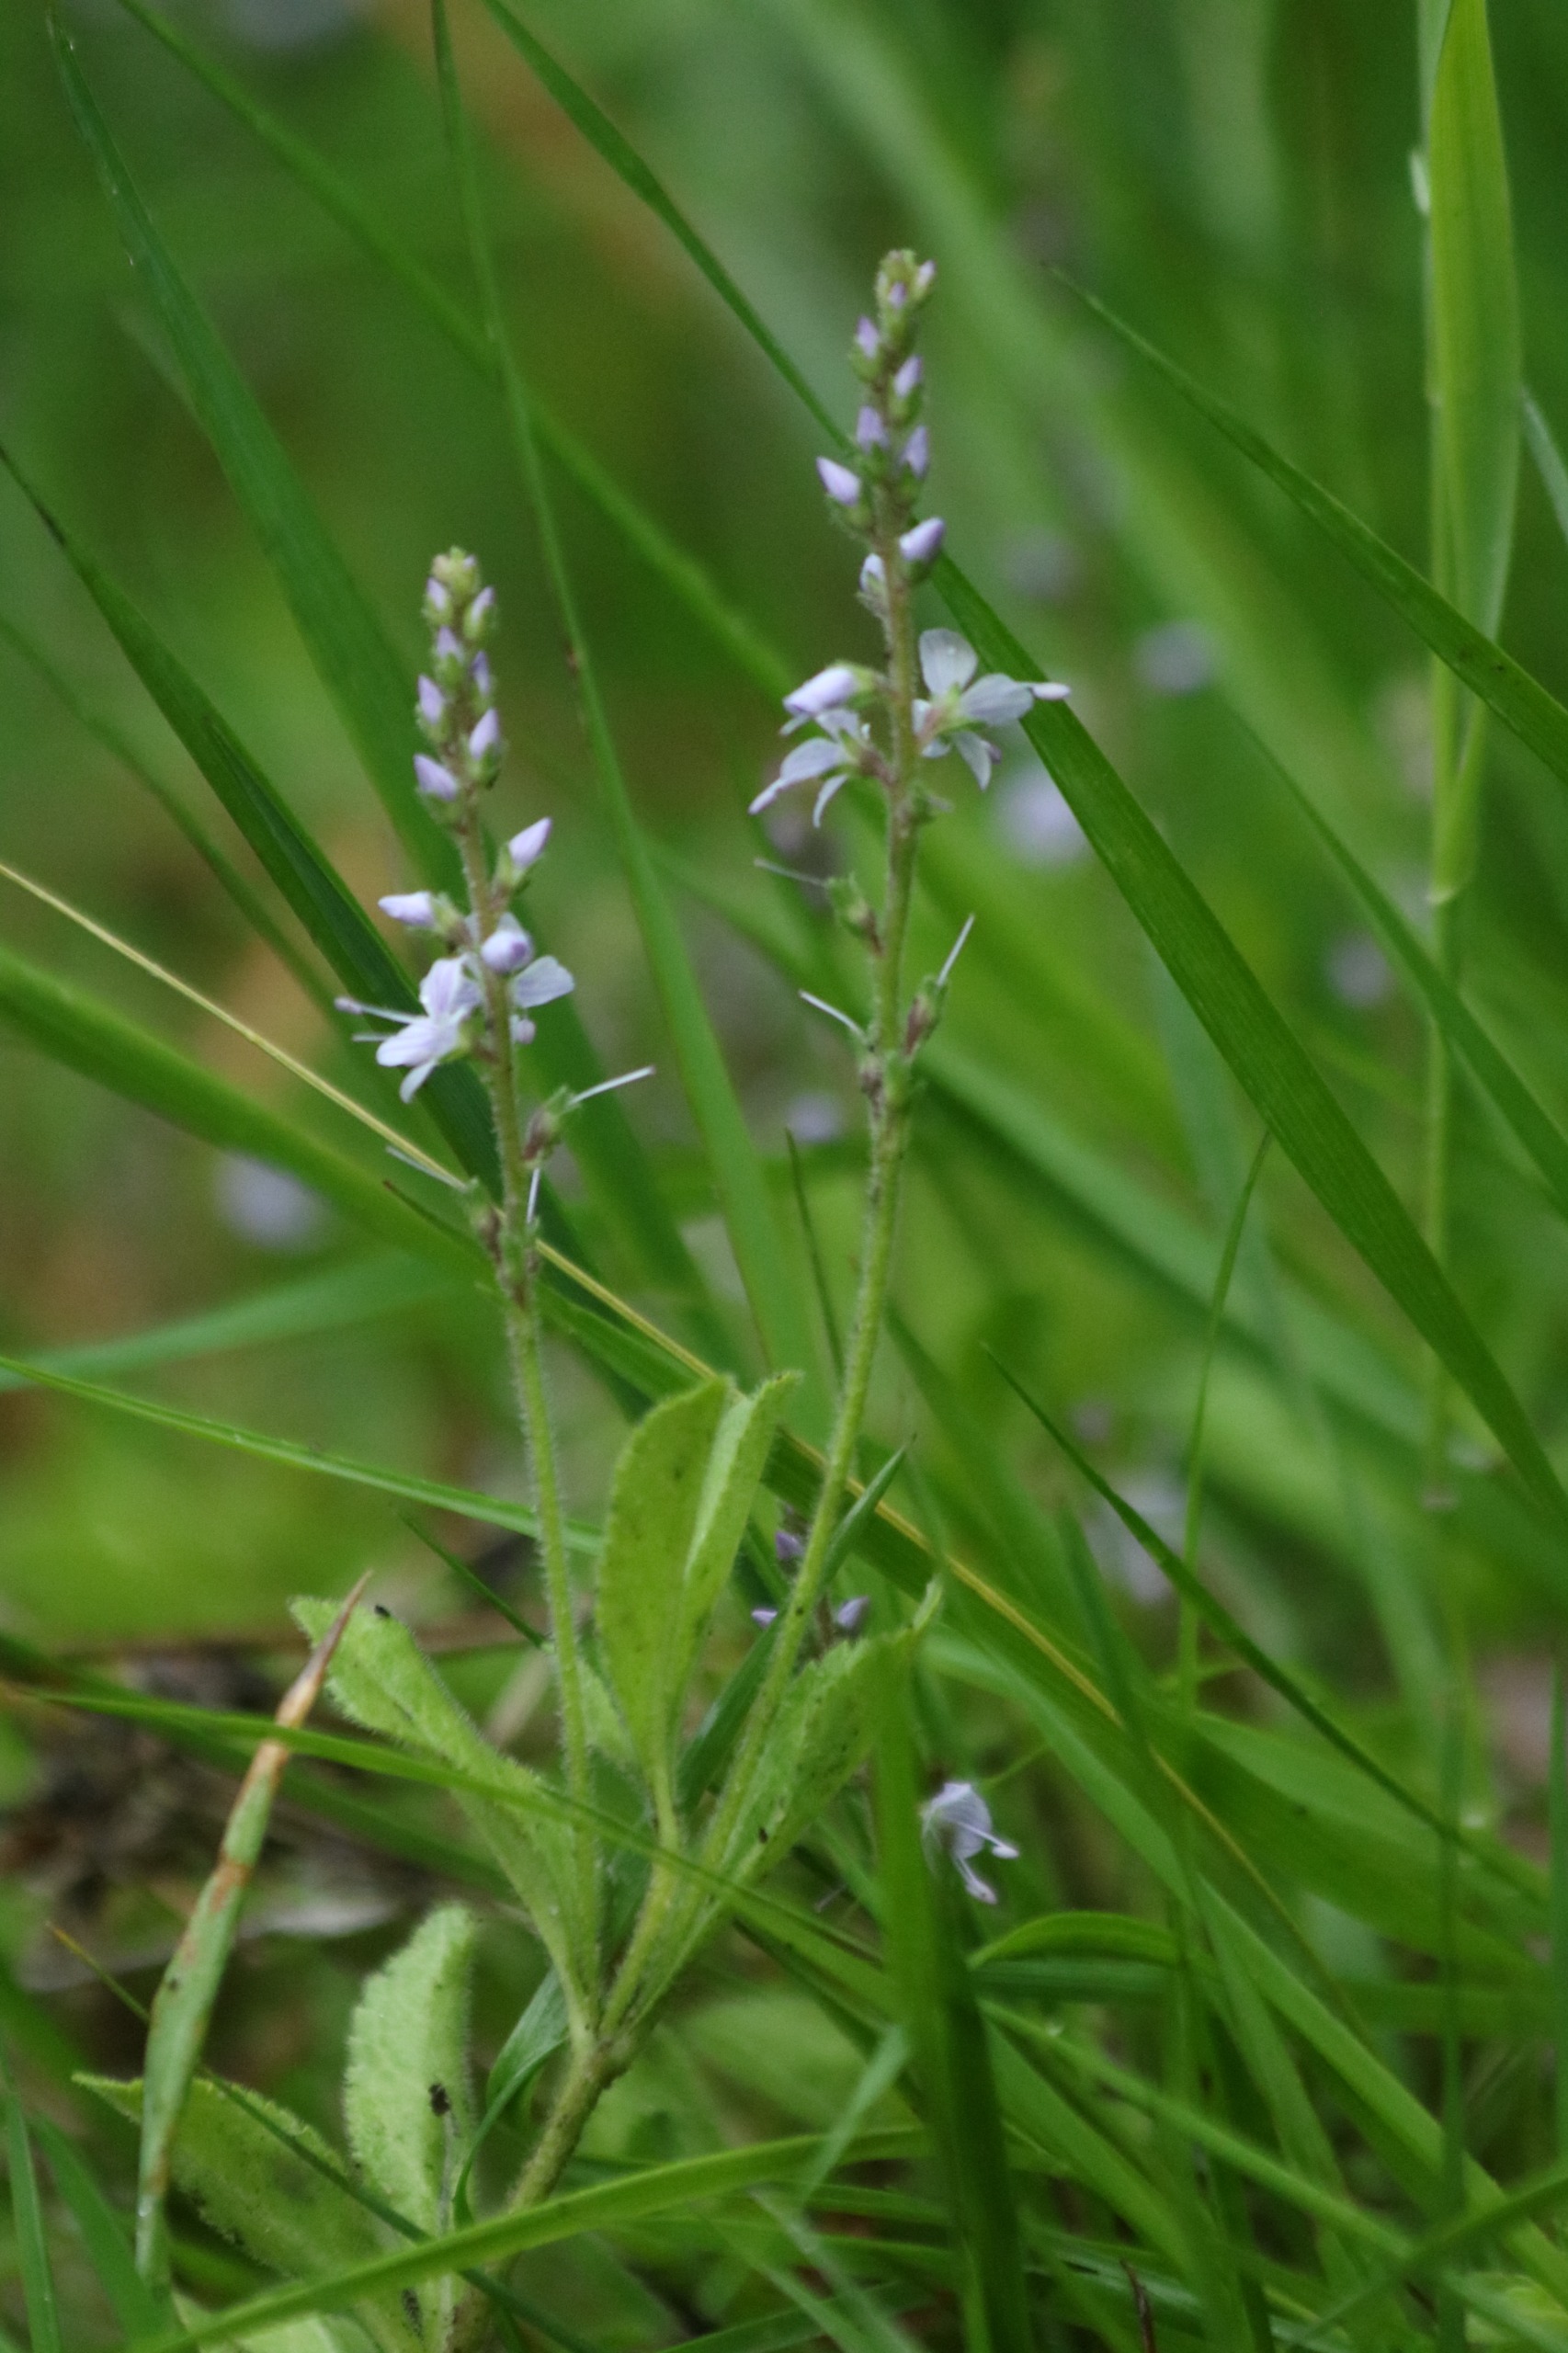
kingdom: Plantae
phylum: Tracheophyta
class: Magnoliopsida
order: Lamiales
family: Plantaginaceae
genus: Veronica
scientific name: Veronica officinalis
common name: Læge-ærenpris
